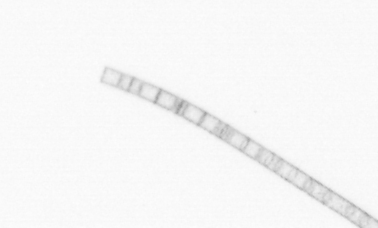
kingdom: Chromista
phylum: Ochrophyta
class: Bacillariophyceae
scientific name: Bacillariophyceae
